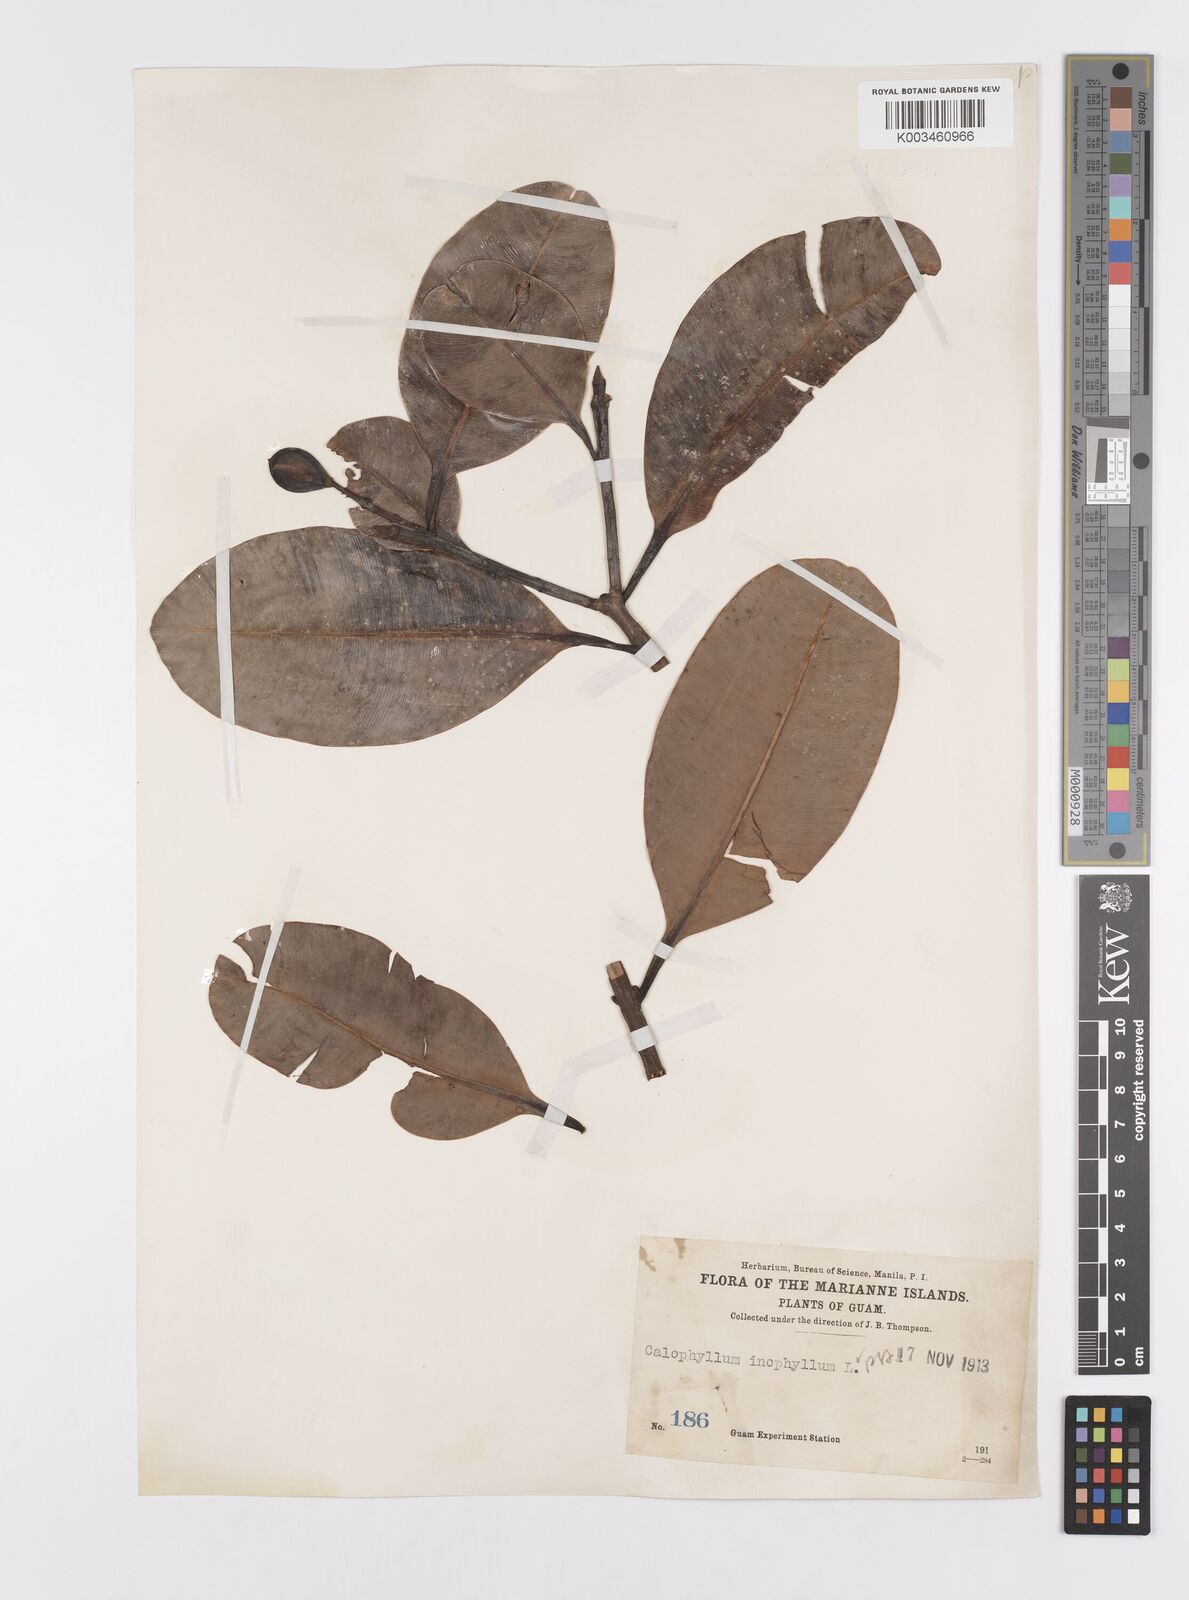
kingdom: Plantae
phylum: Tracheophyta
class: Magnoliopsida
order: Malpighiales
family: Calophyllaceae
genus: Calophyllum
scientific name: Calophyllum inophyllum
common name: Alexandrian laurel
